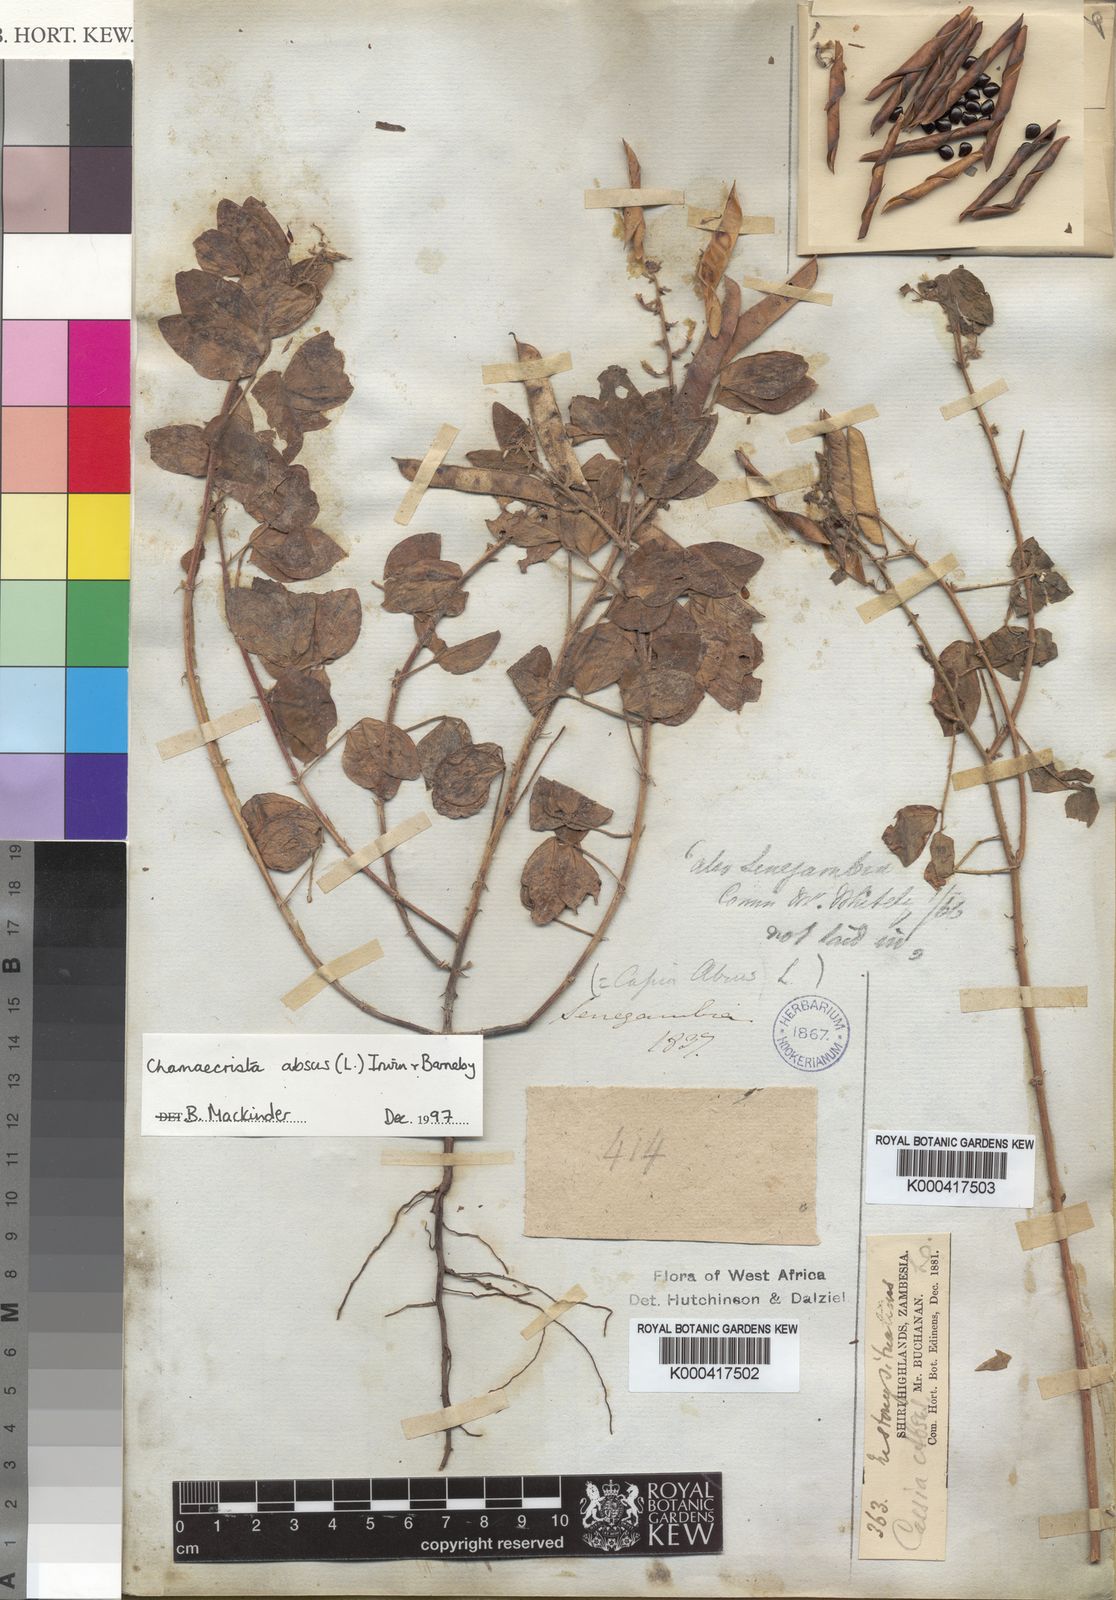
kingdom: Plantae
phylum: Tracheophyta
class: Magnoliopsida
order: Fabales
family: Fabaceae
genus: Chamaecrista
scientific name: Chamaecrista absus
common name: Tropical sensitive pea
